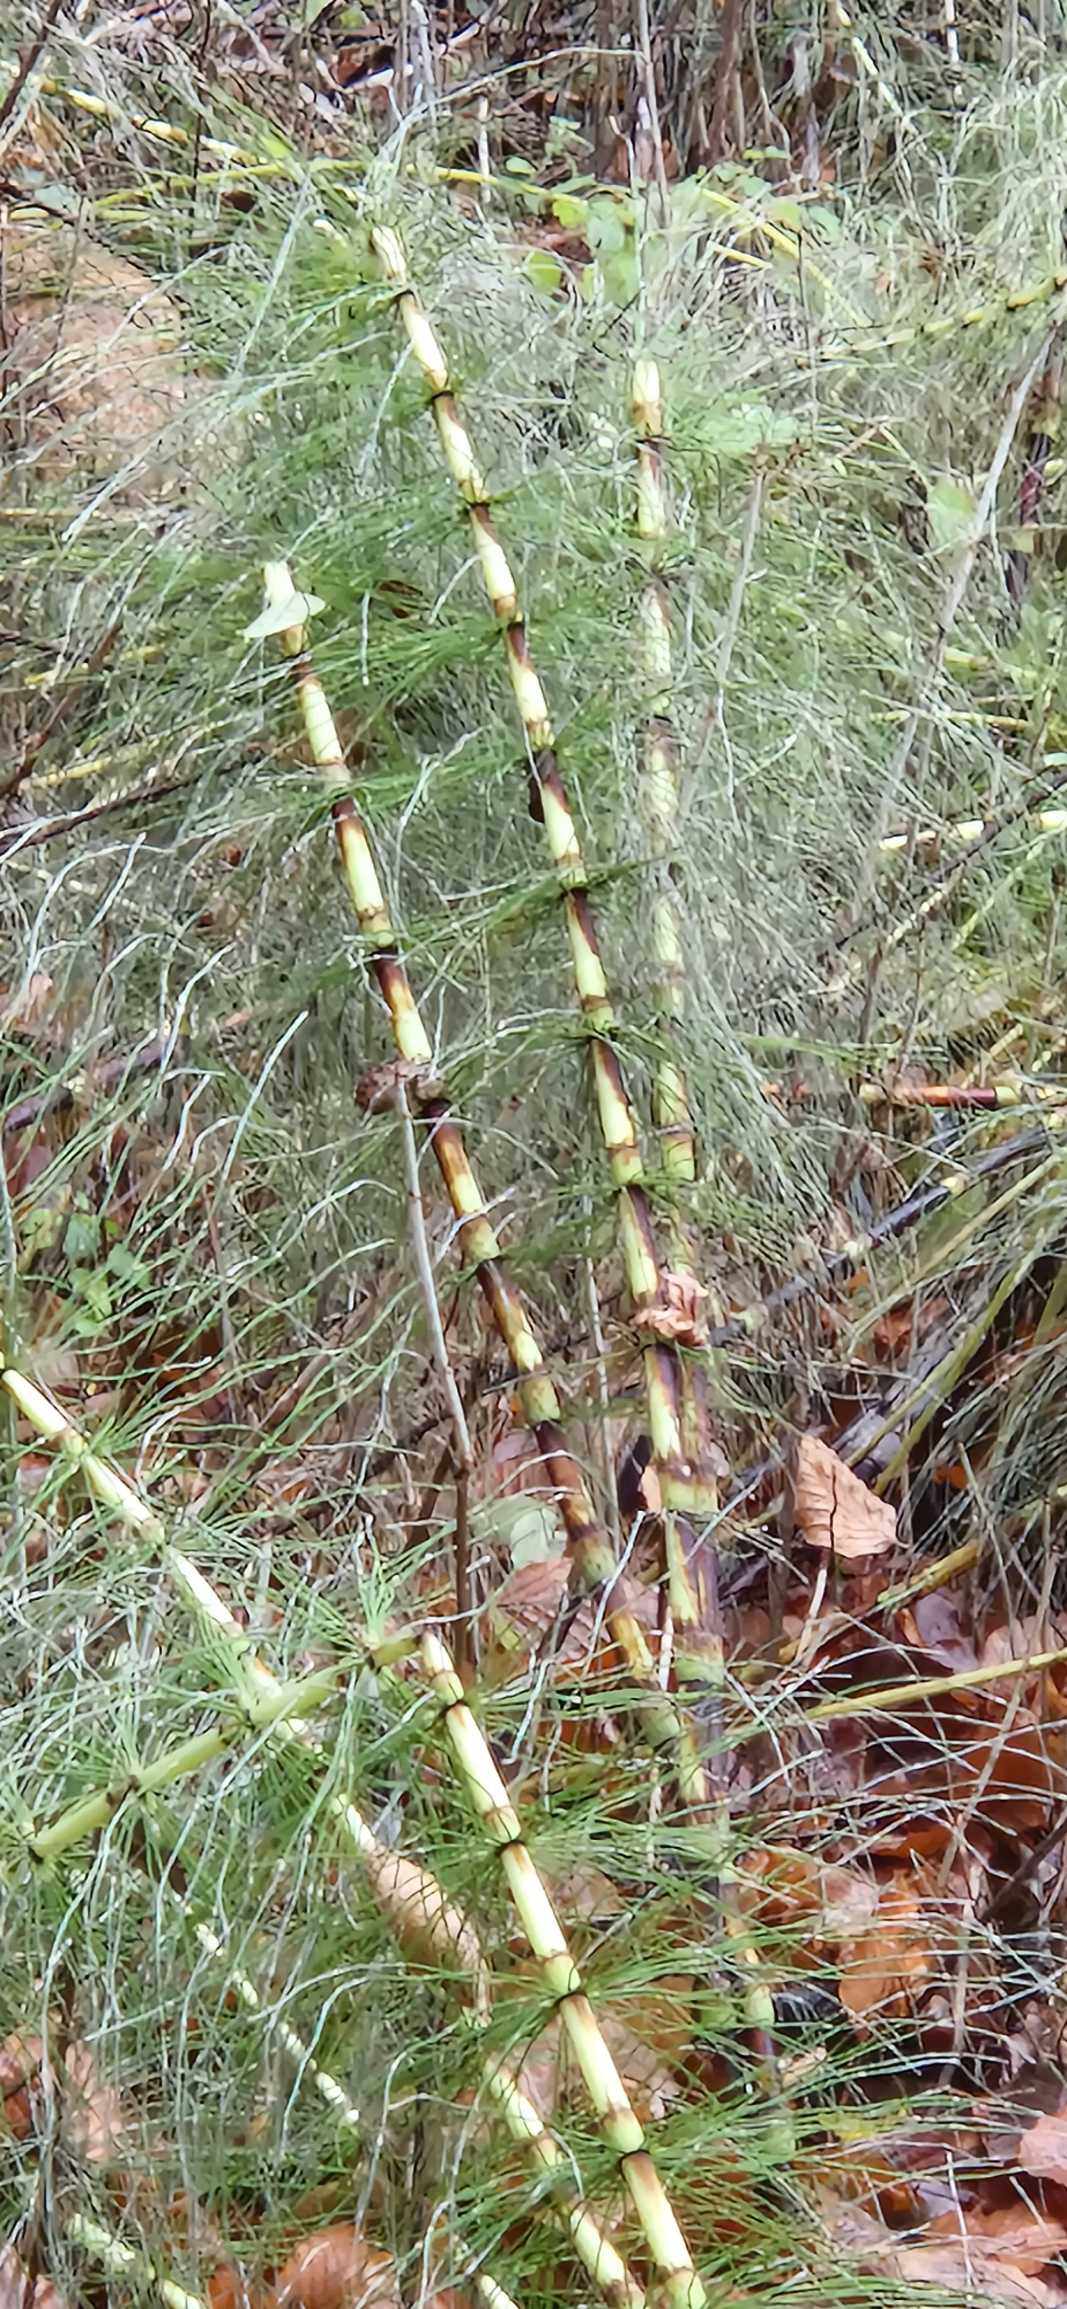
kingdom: Plantae
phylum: Tracheophyta
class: Polypodiopsida
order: Equisetales
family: Equisetaceae
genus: Equisetum
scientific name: Equisetum telmateia
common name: Elfenbens-padderok
